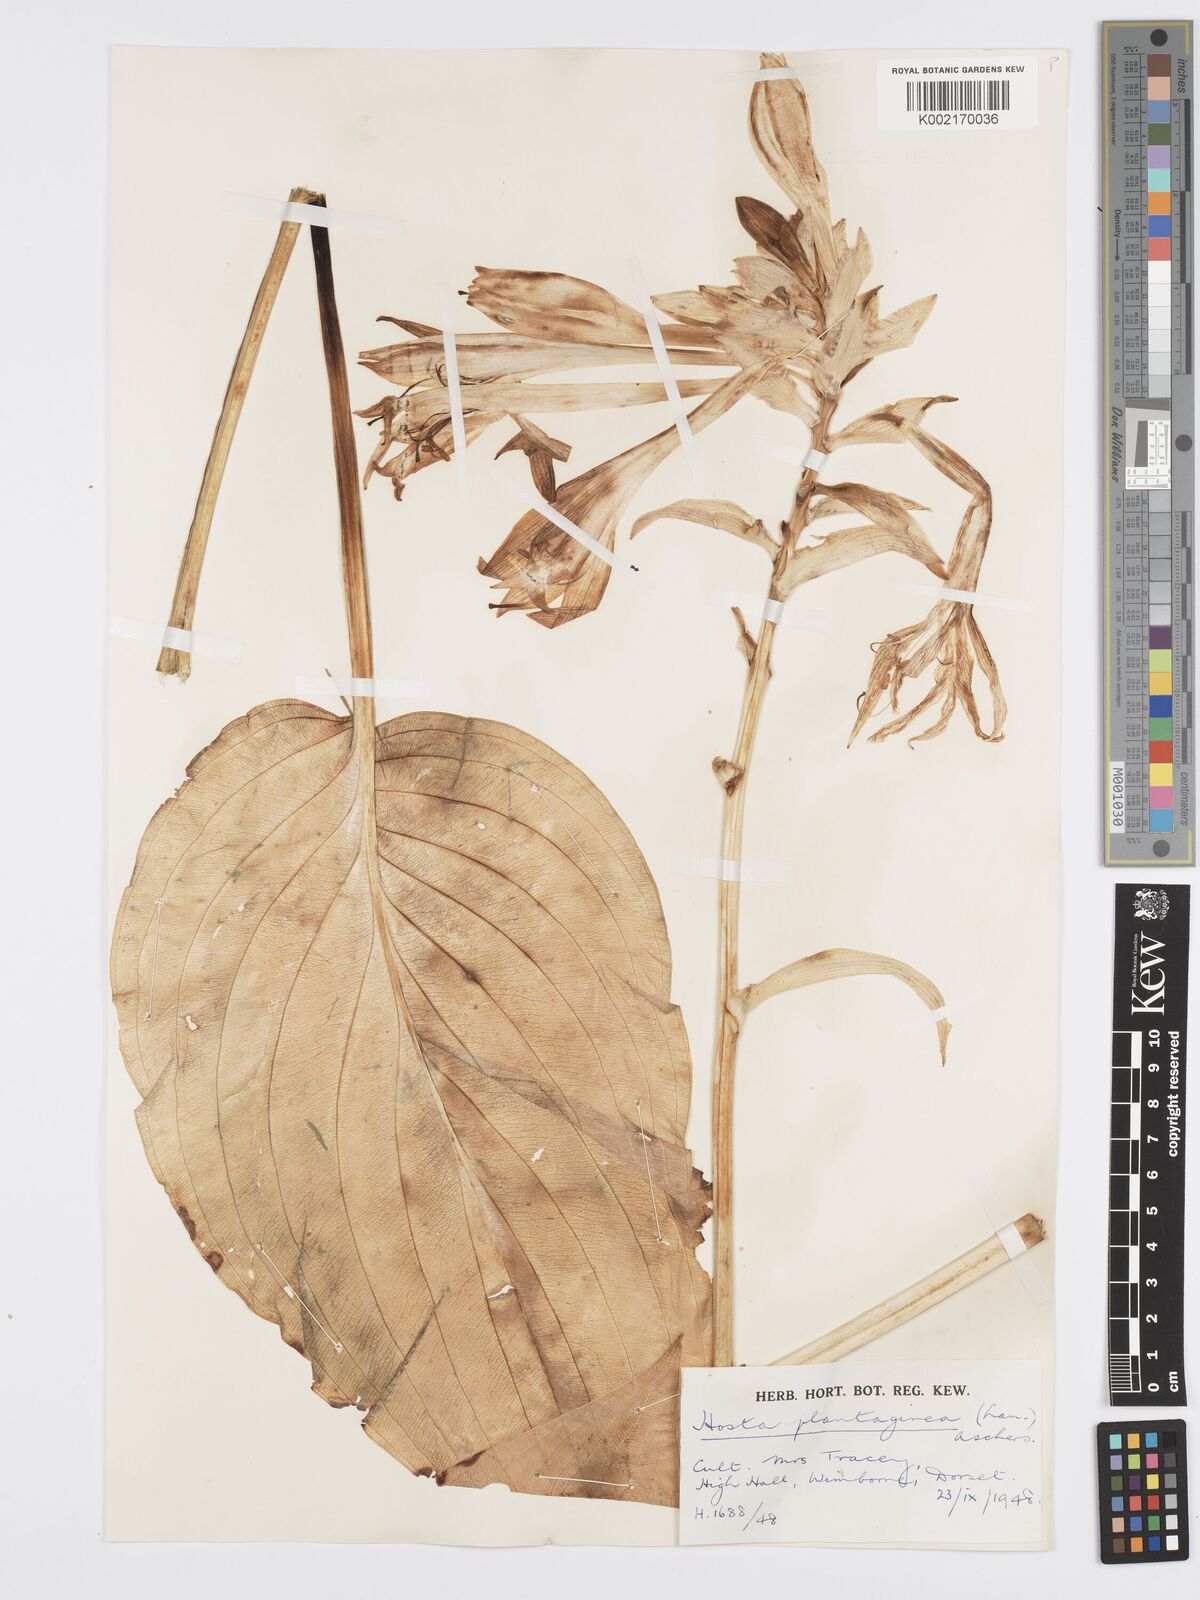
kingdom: Plantae
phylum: Tracheophyta
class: Liliopsida
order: Asparagales
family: Asparagaceae
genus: Hosta
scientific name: Hosta plantaginea
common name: August-lily
